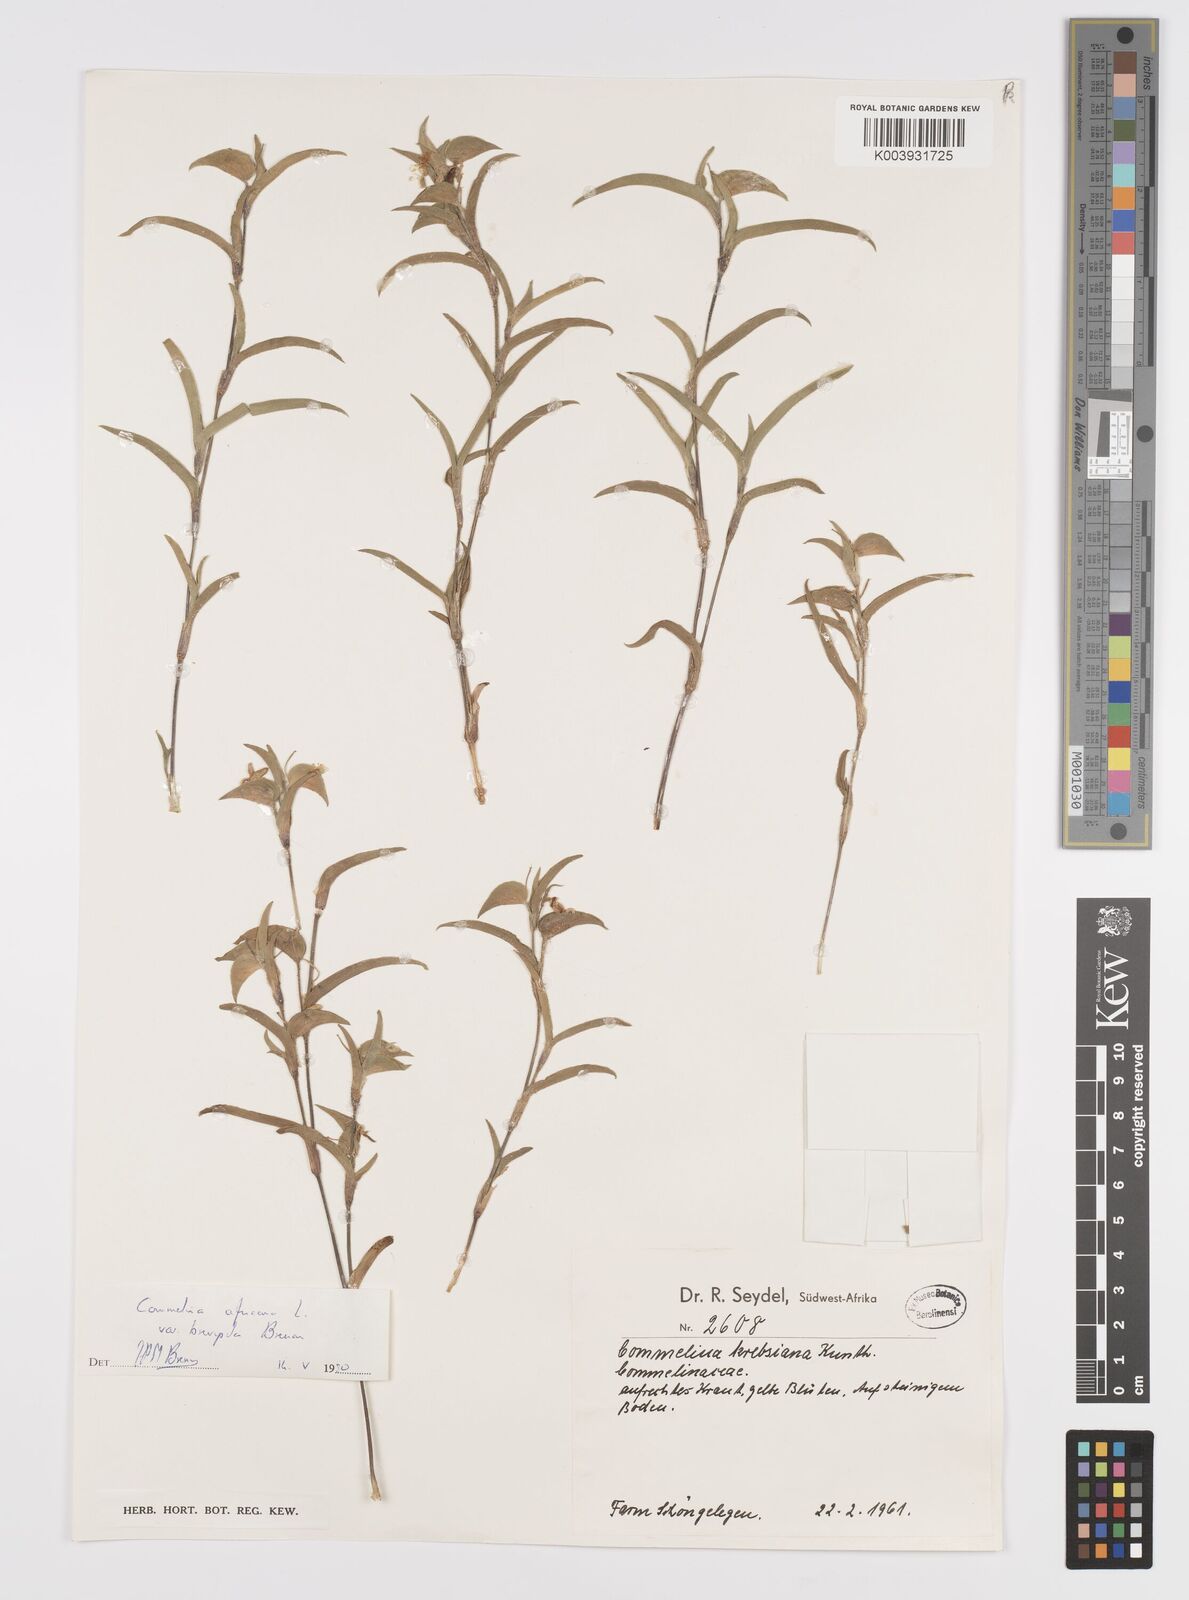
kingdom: Plantae
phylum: Tracheophyta
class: Liliopsida
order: Commelinales
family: Commelinaceae
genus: Commelina
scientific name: Commelina africana
